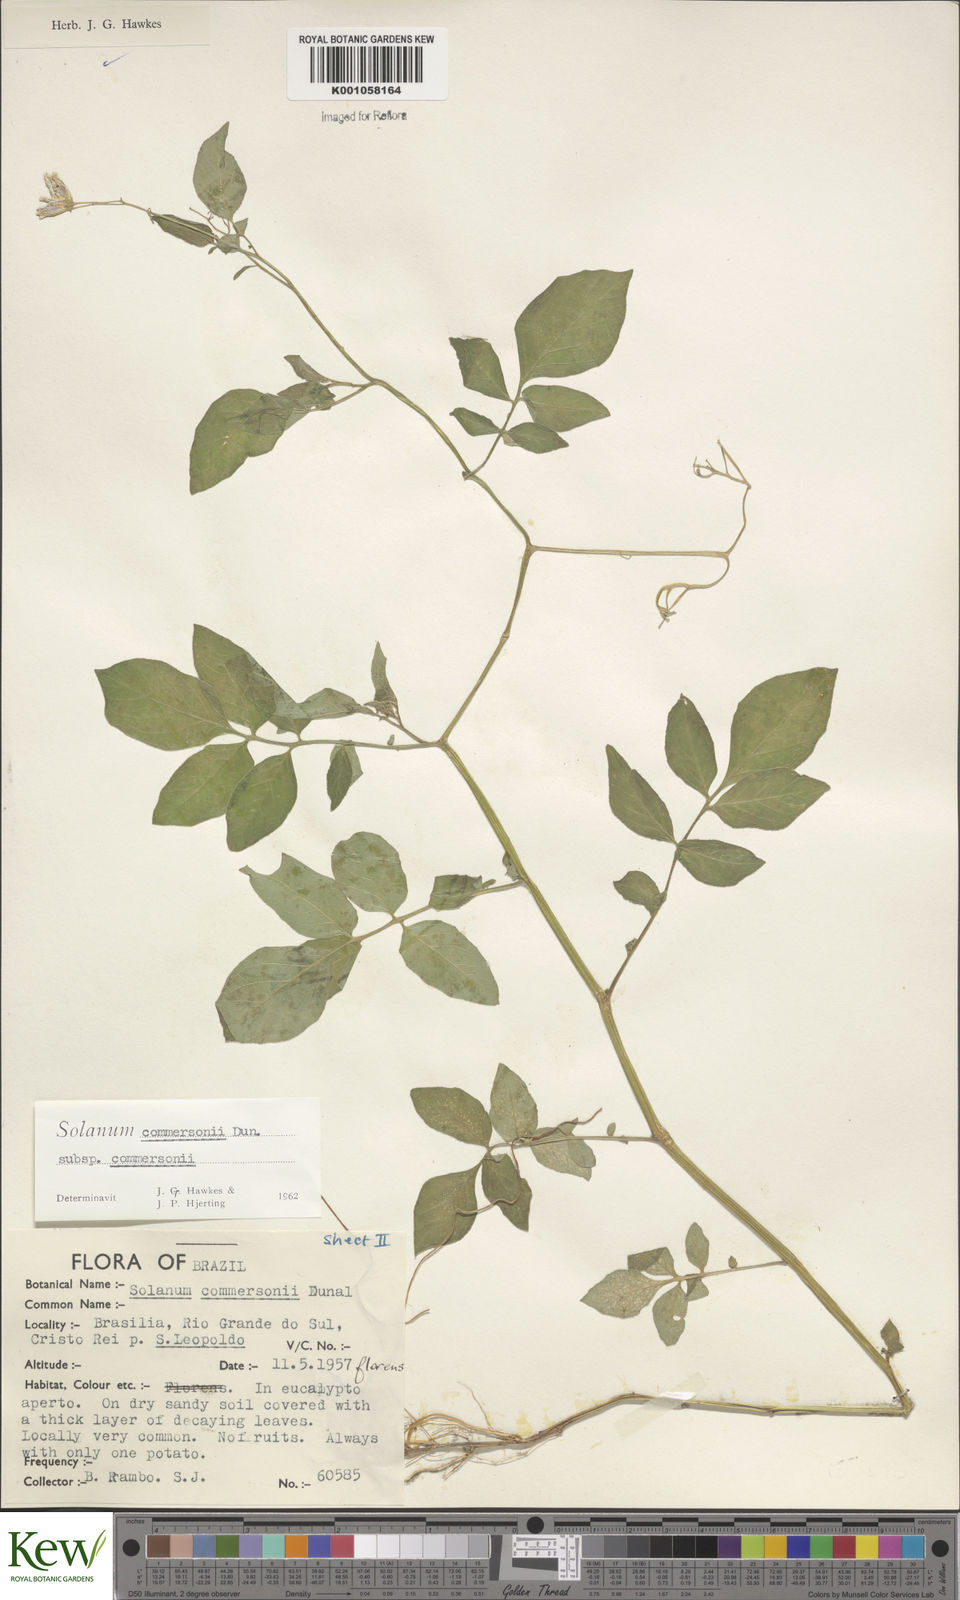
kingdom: Plantae
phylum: Tracheophyta
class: Magnoliopsida
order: Solanales
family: Solanaceae
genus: Solanum
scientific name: Solanum
